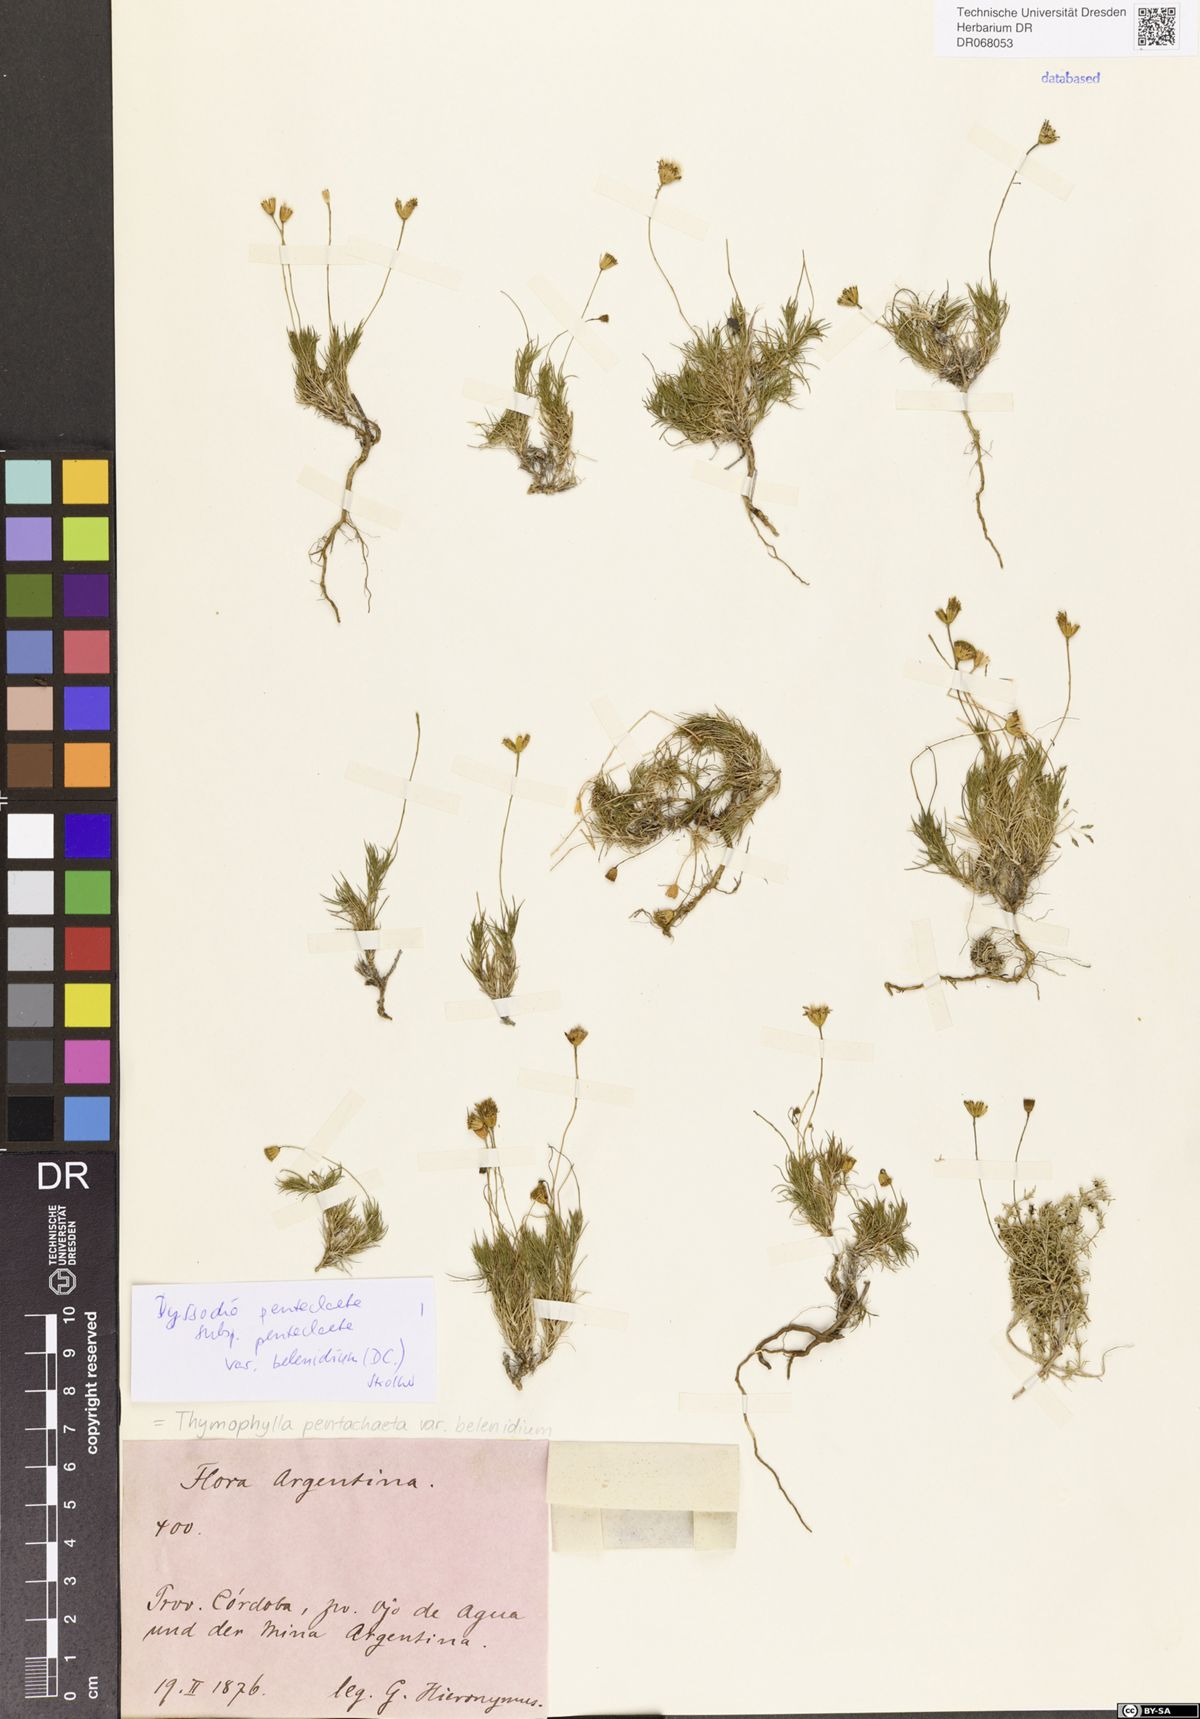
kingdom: Plantae
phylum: Tracheophyta
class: Magnoliopsida
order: Asterales
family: Asteraceae
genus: Thymophylla
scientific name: Thymophylla pentachaeta
